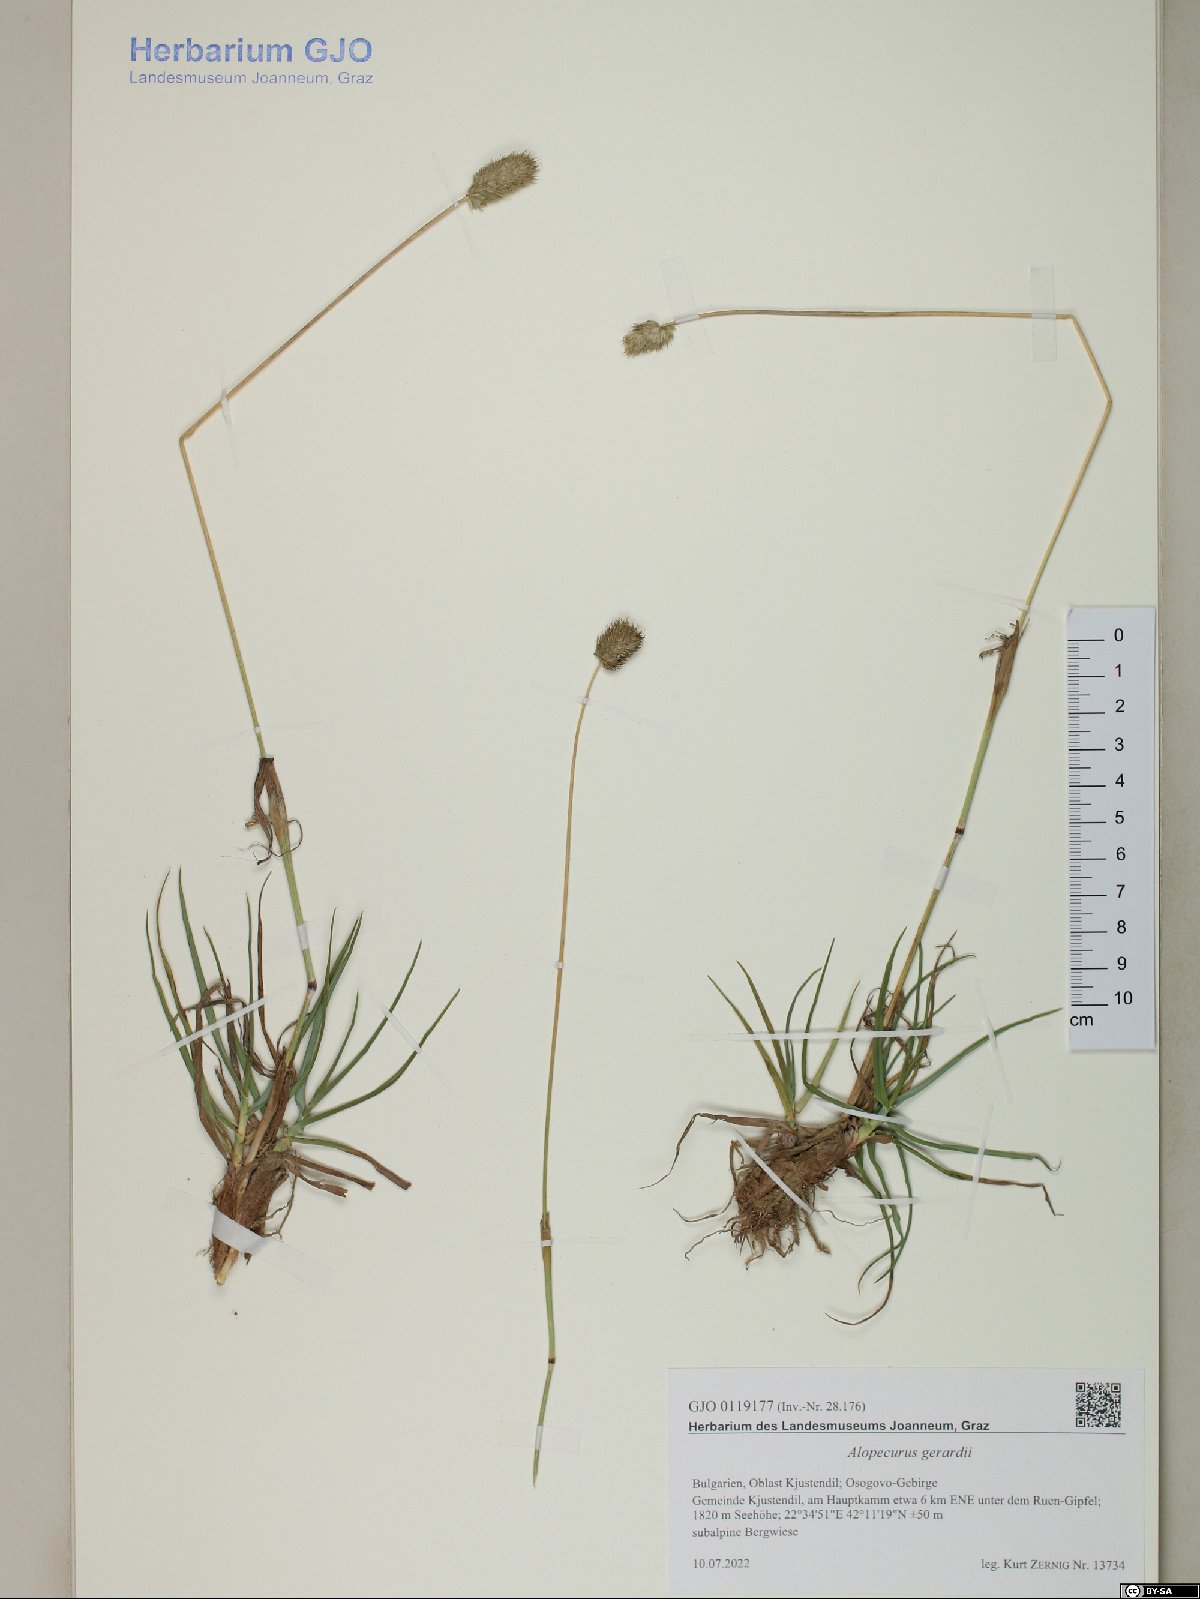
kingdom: Plantae
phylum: Tracheophyta
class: Liliopsida
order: Poales
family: Poaceae
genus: Alopecurus
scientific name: Alopecurus gerardii
